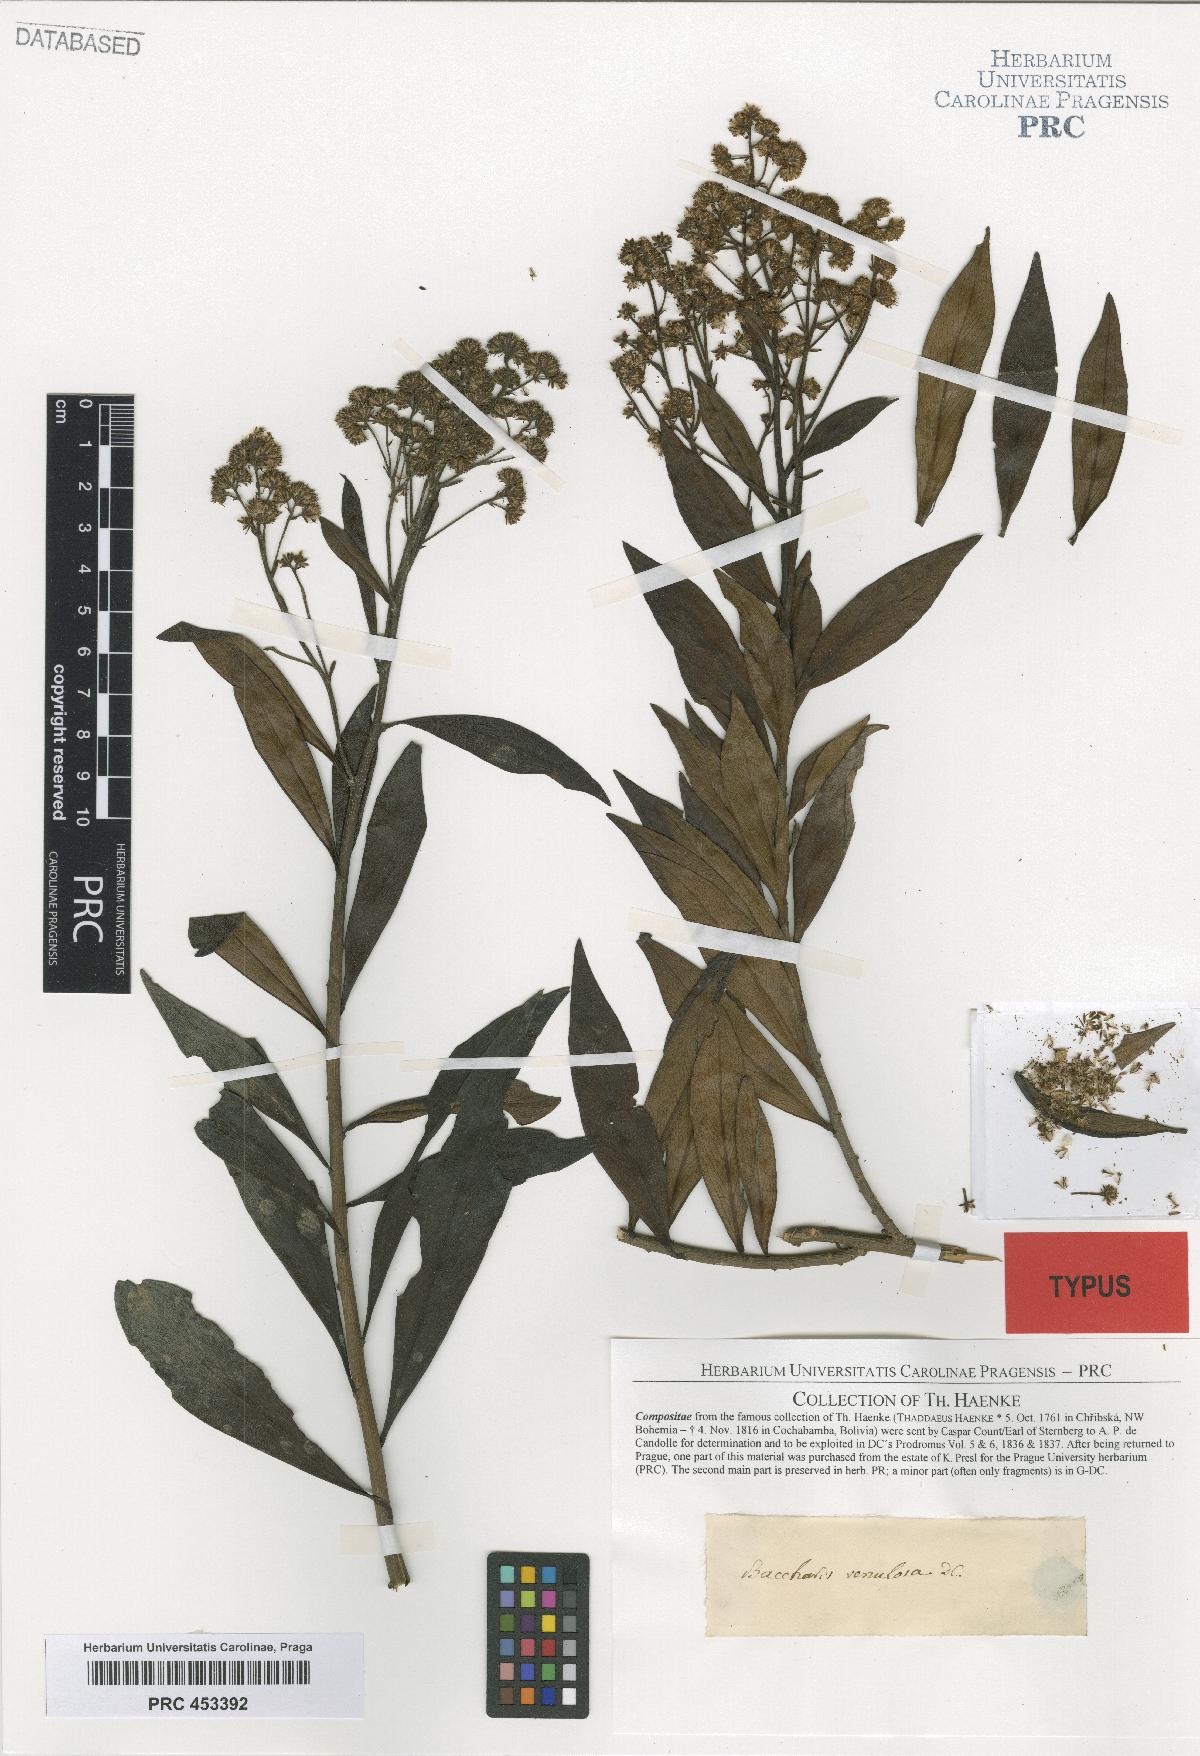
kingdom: Plantae
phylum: Tracheophyta
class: Magnoliopsida
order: Asterales
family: Asteraceae
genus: Baccharis
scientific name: Baccharis oblongifolia
